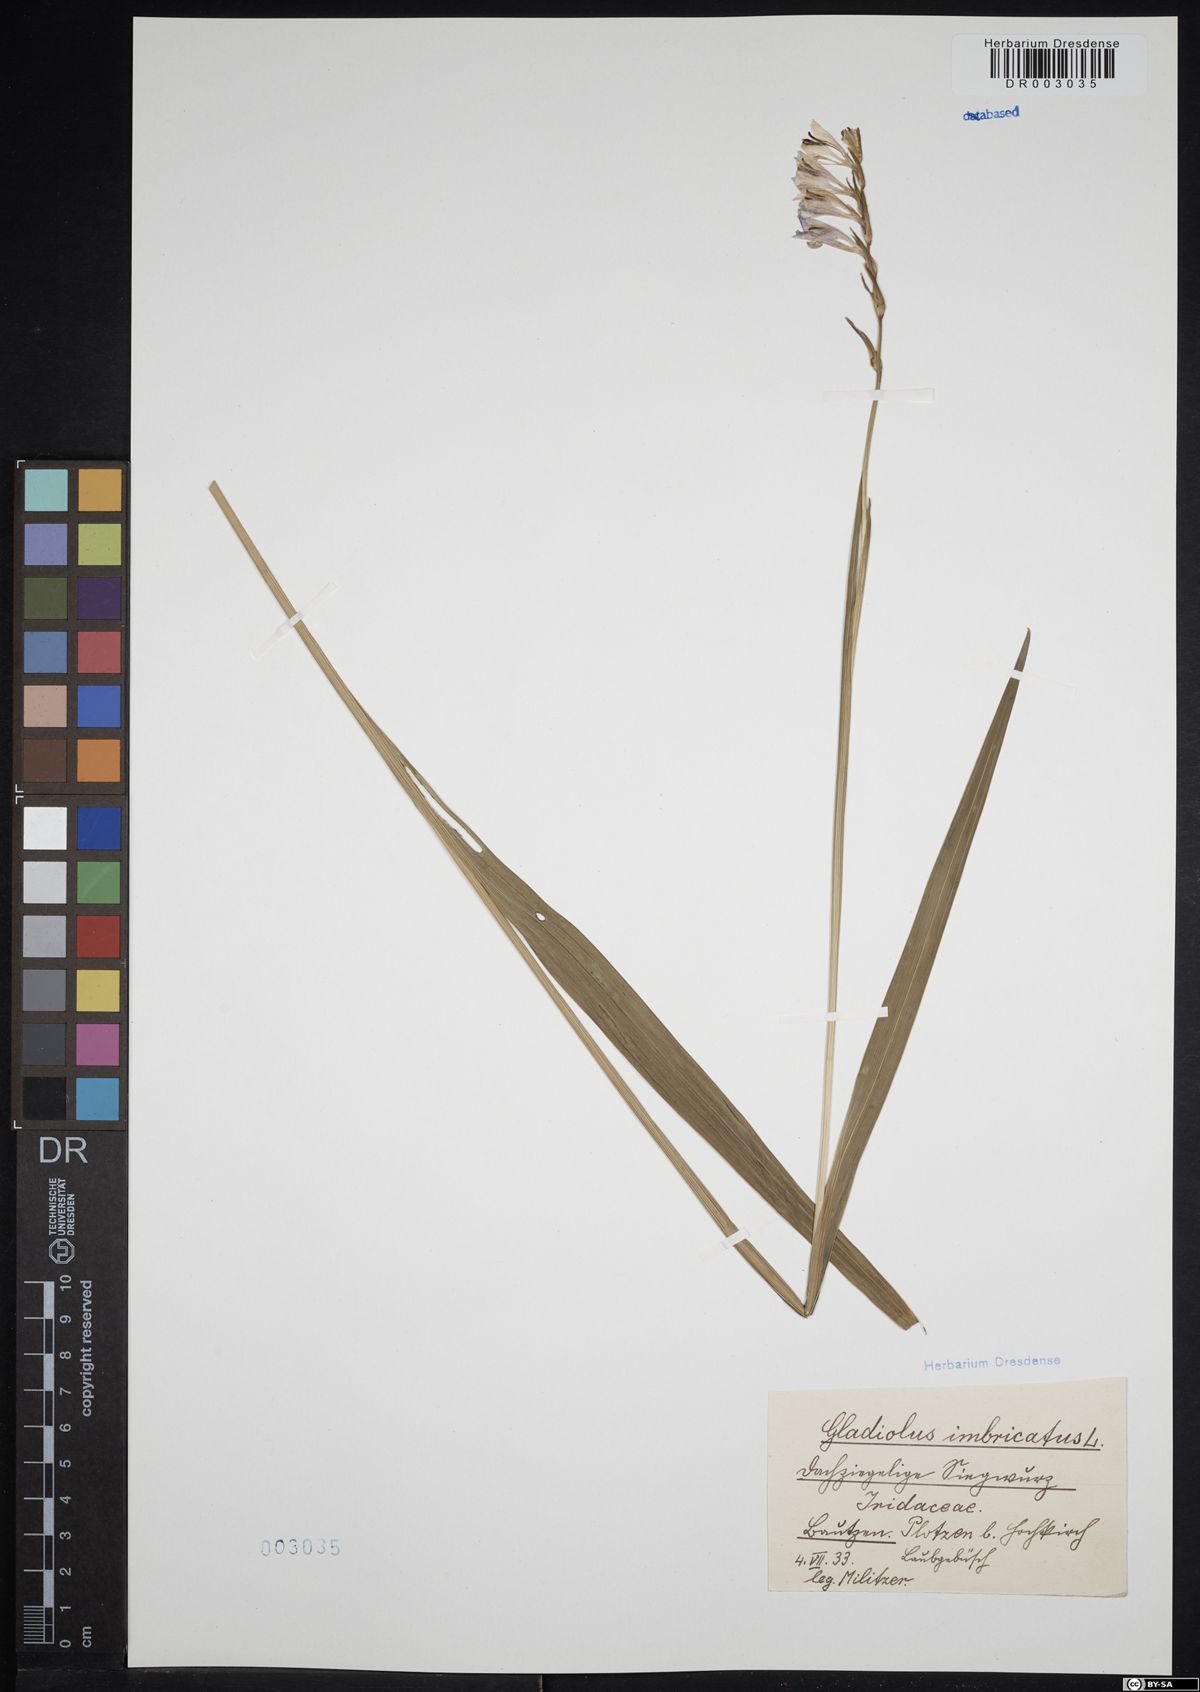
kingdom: Plantae
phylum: Tracheophyta
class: Liliopsida
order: Asparagales
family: Iridaceae
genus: Gladiolus
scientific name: Gladiolus imbricatus
